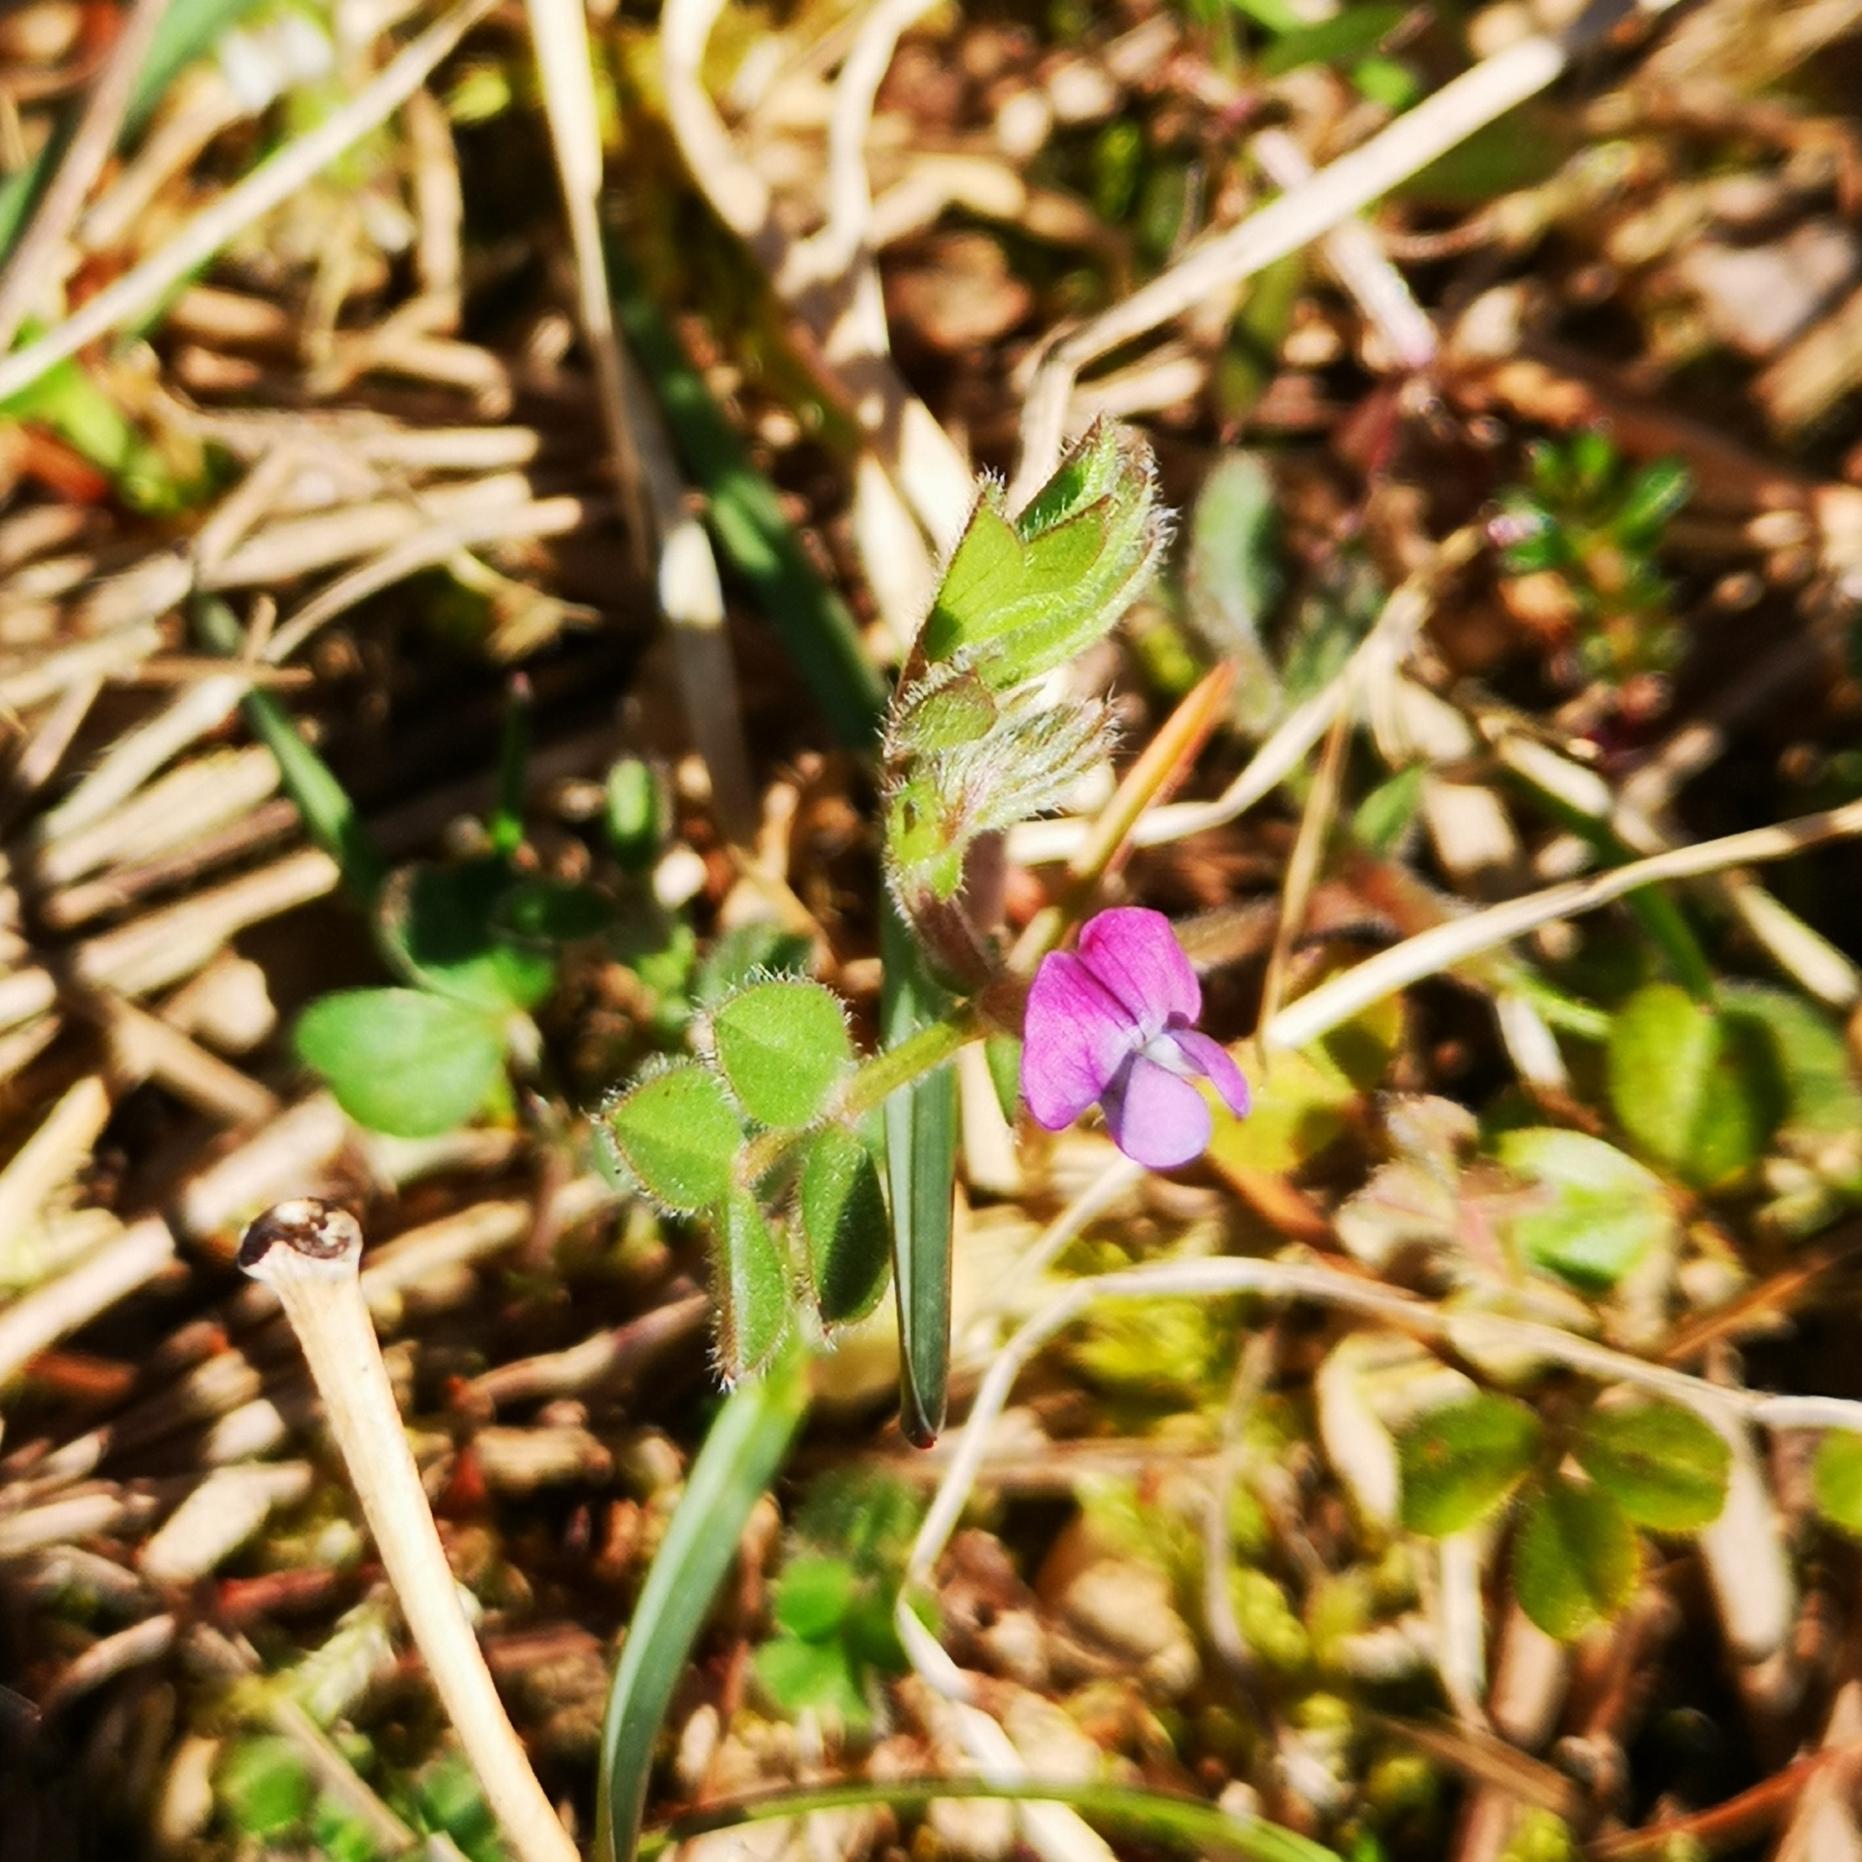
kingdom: Plantae
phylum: Tracheophyta
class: Magnoliopsida
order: Fabales
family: Fabaceae
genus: Vicia
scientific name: Vicia lathyroides
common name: Vår-vikke
